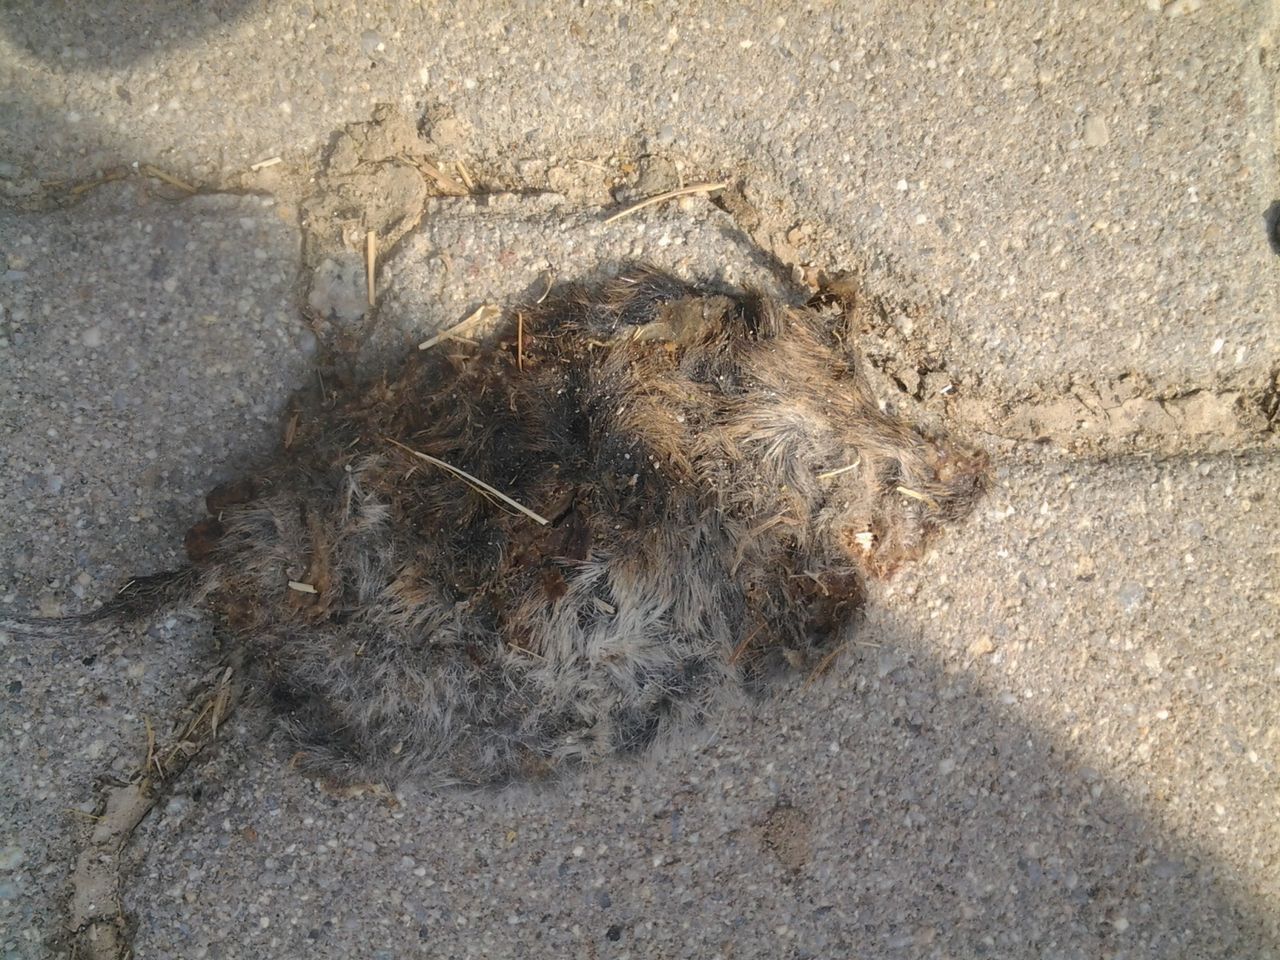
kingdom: Animalia
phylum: Chordata
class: Mammalia
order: Chiroptera
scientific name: Chiroptera
